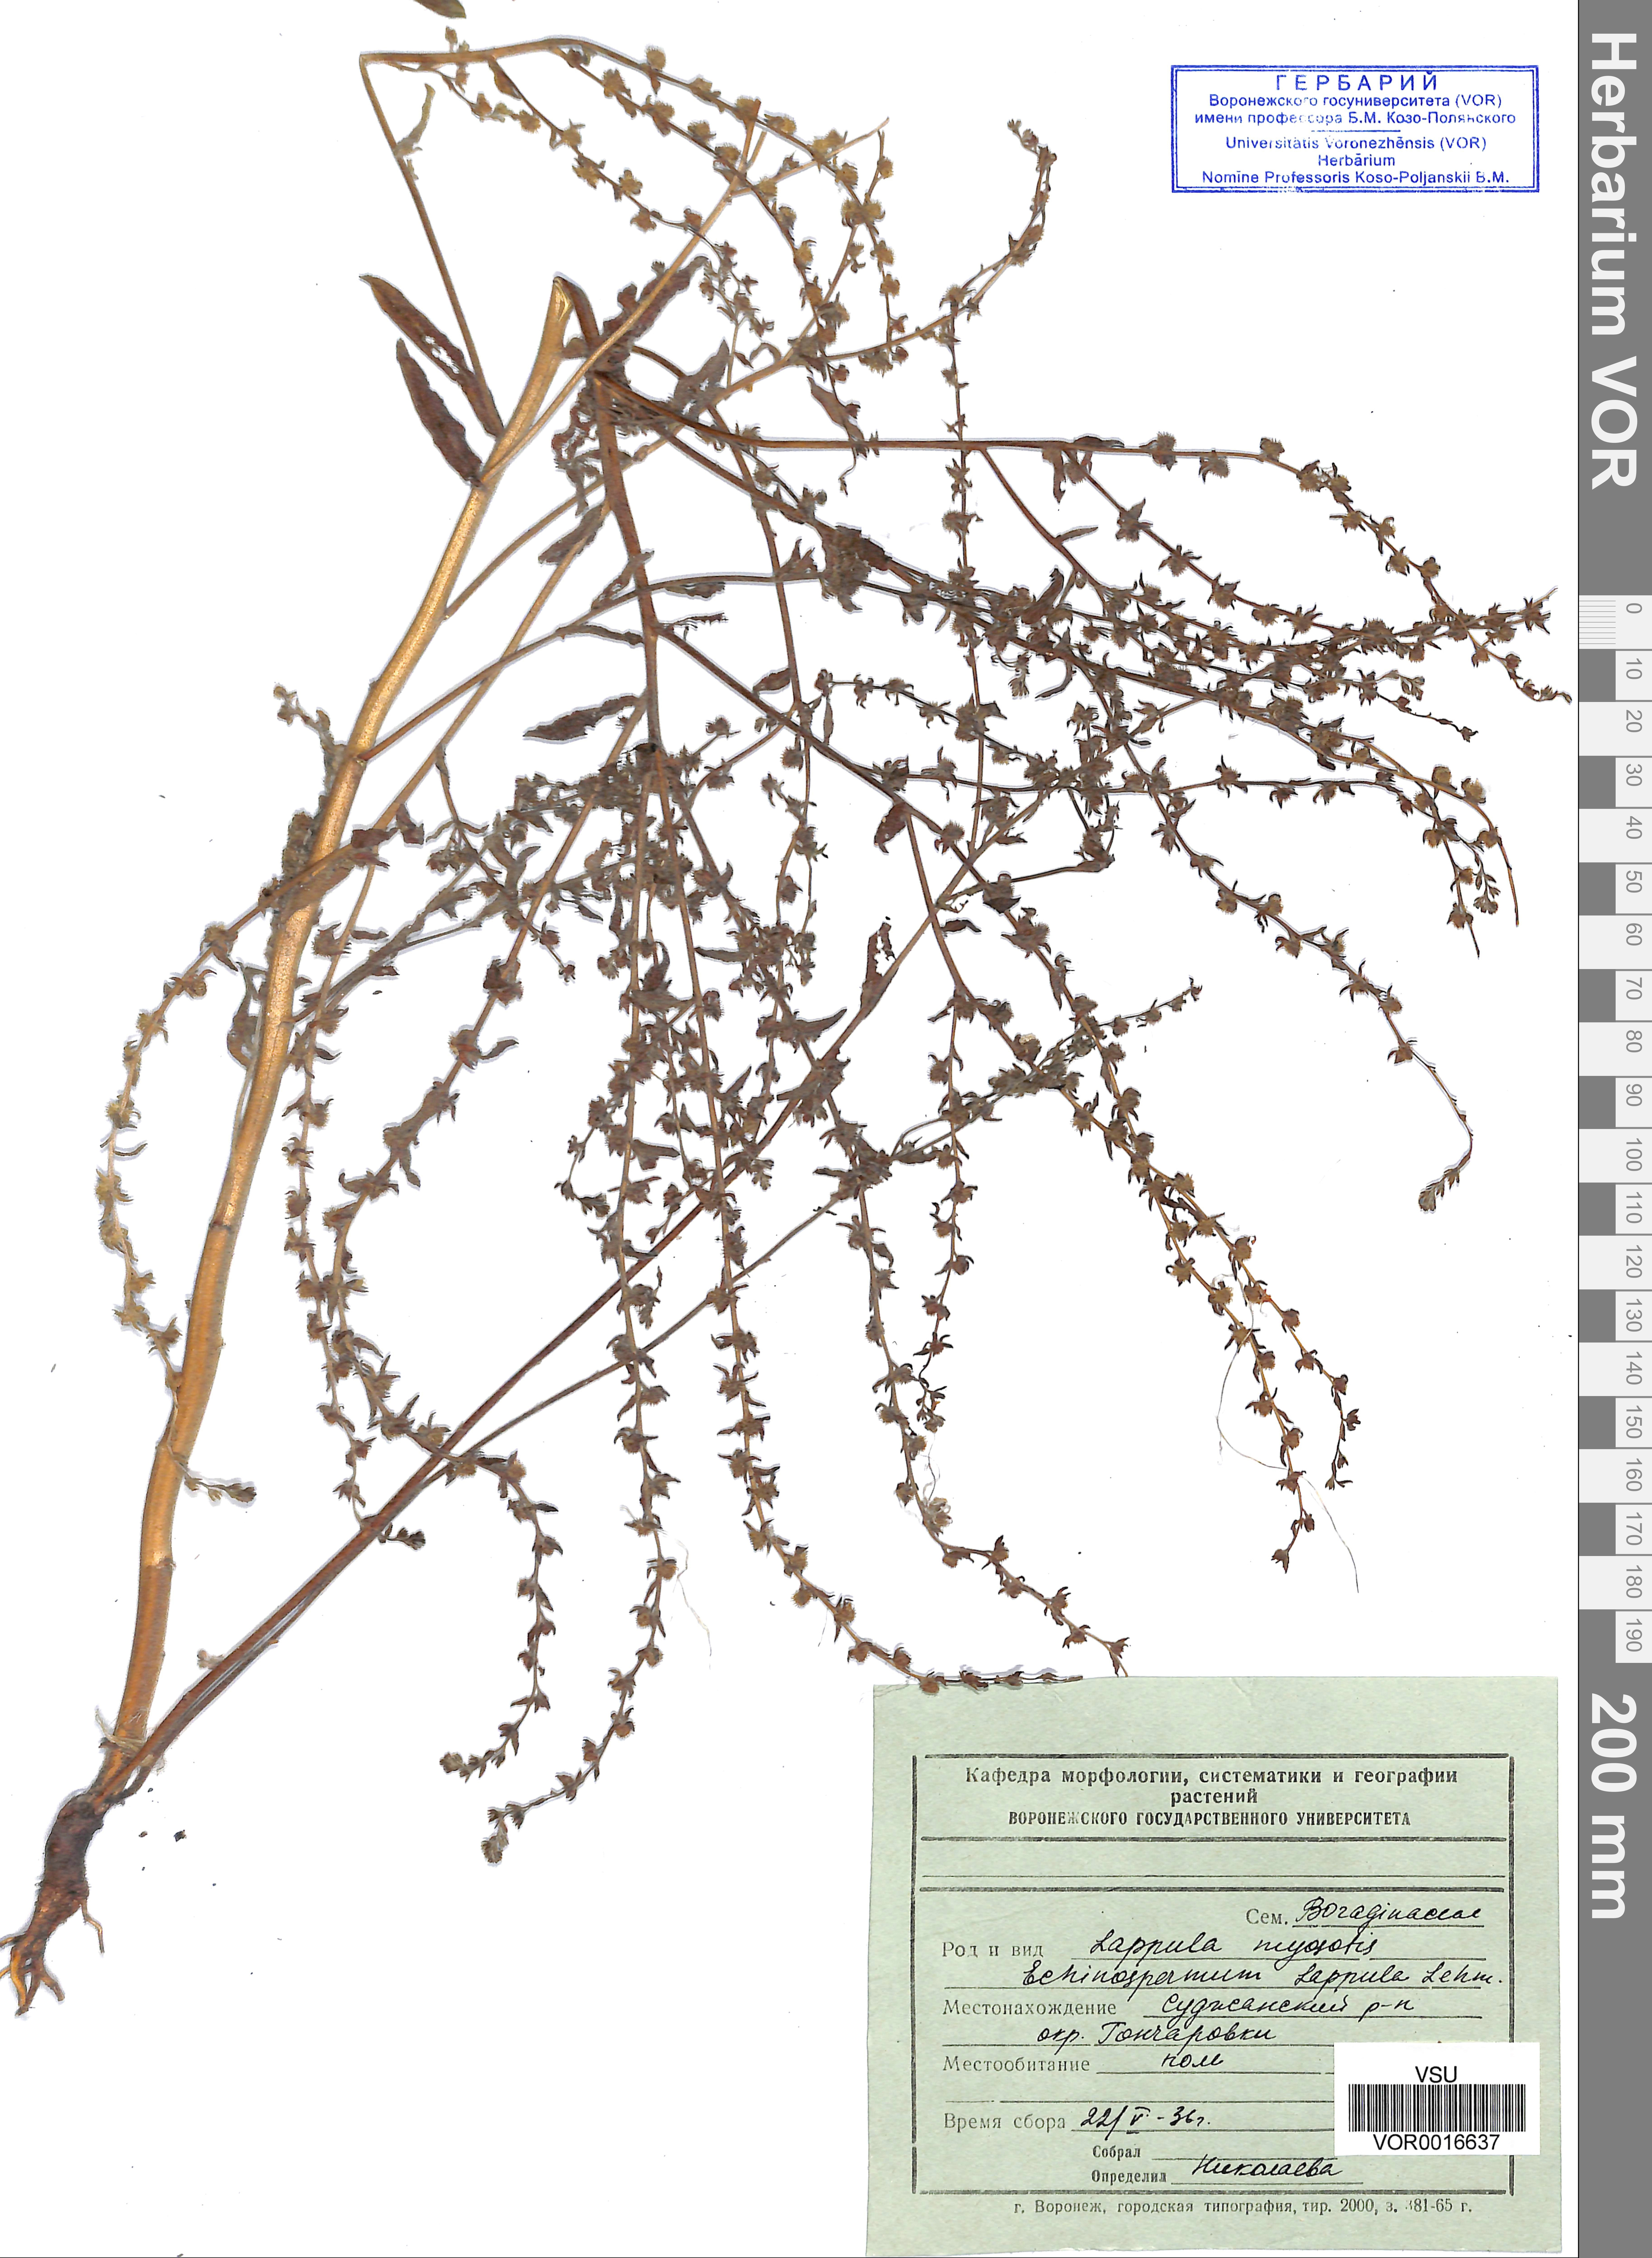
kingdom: Plantae
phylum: Tracheophyta
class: Magnoliopsida
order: Boraginales
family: Boraginaceae
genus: Lappula
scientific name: Lappula squarrosa
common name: European stickseed
